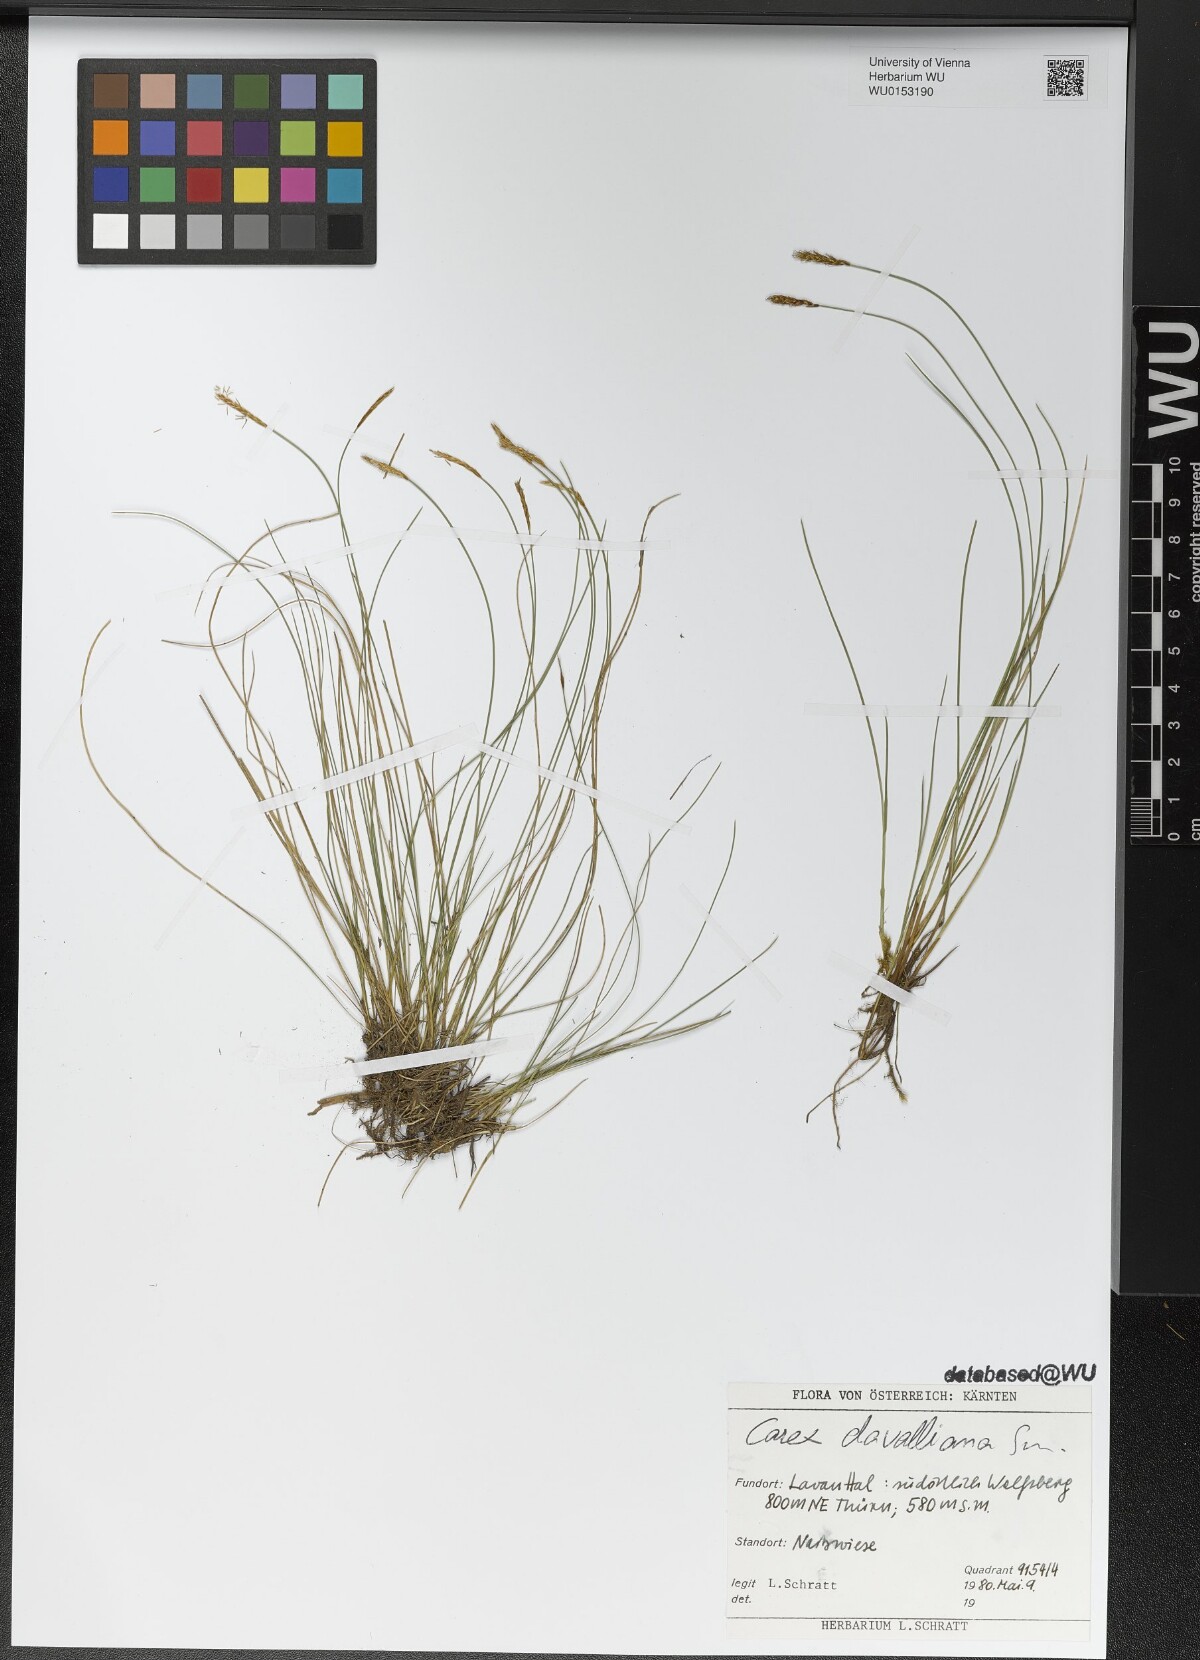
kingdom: Plantae
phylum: Tracheophyta
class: Liliopsida
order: Poales
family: Cyperaceae
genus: Carex
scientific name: Carex davalliana
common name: Davall's sedge
